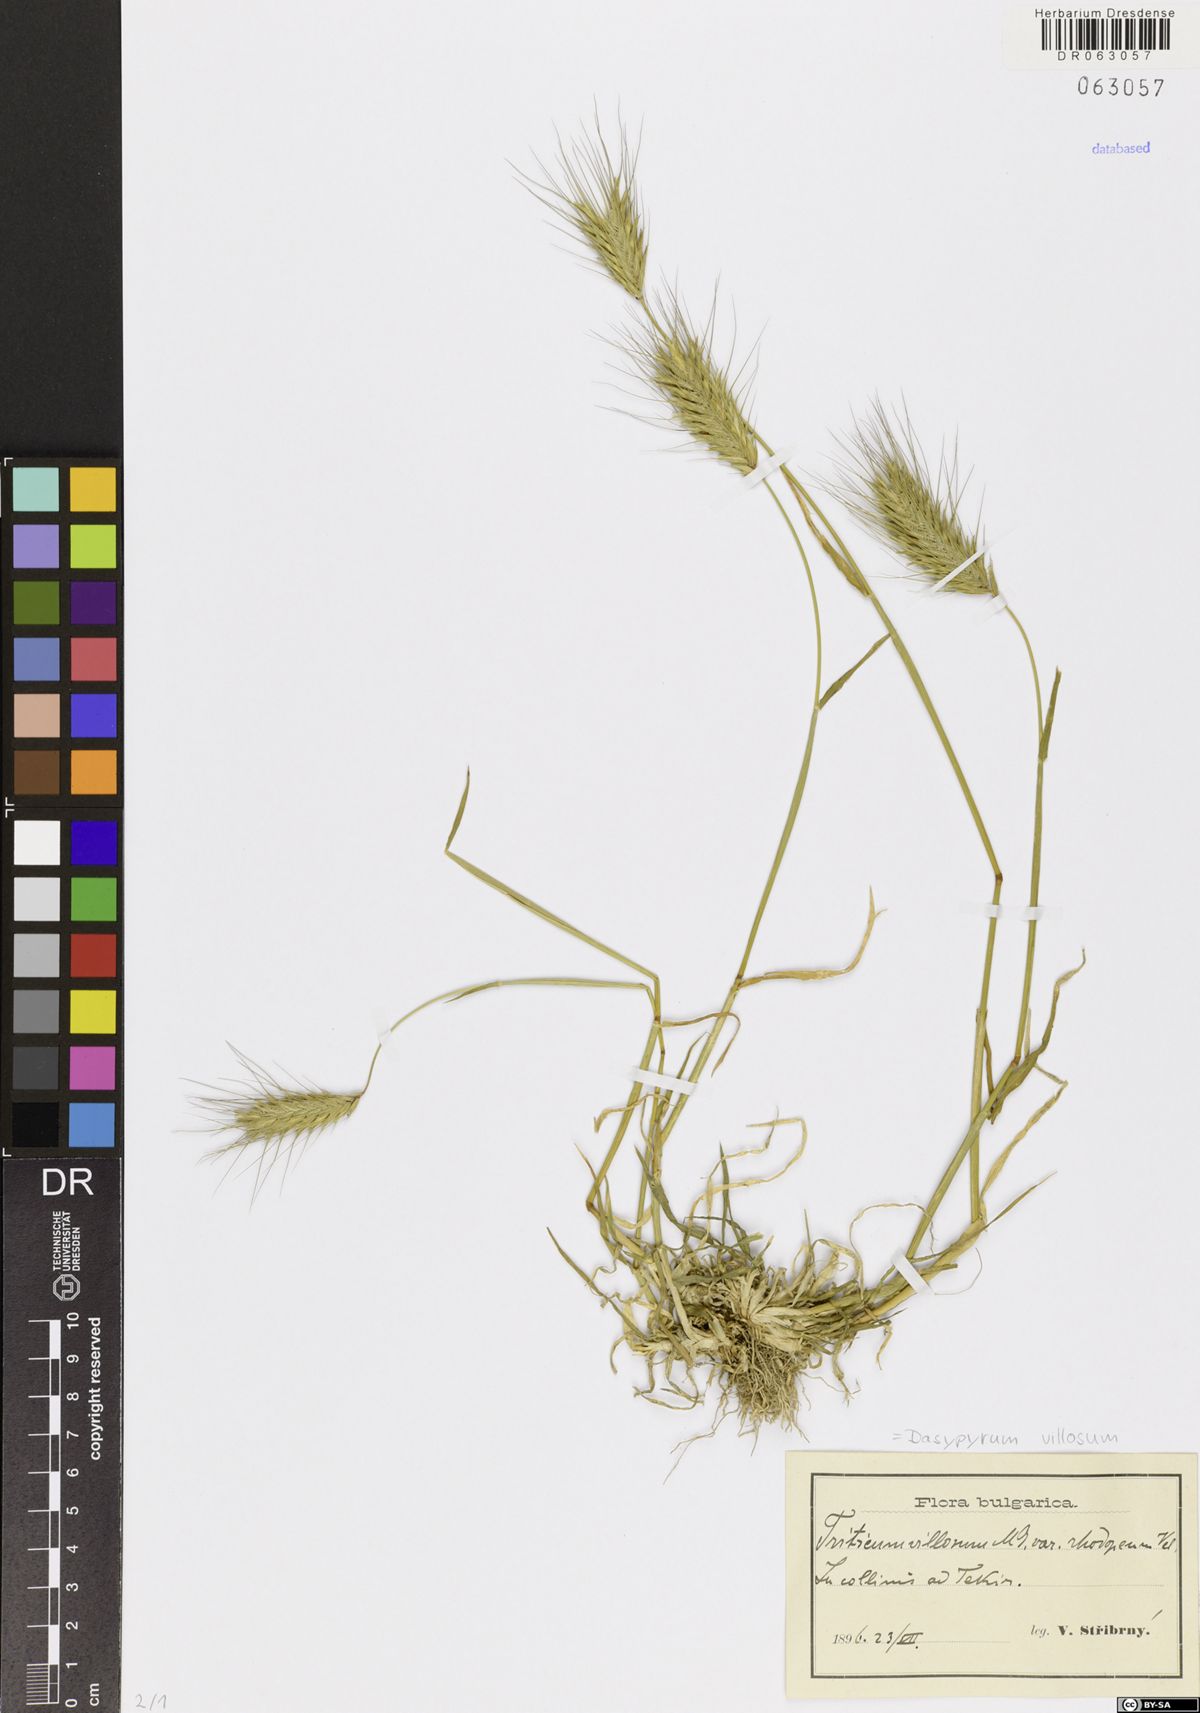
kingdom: Plantae
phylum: Tracheophyta
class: Liliopsida
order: Poales
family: Poaceae
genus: Dasypyrum
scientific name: Dasypyrum villosum
